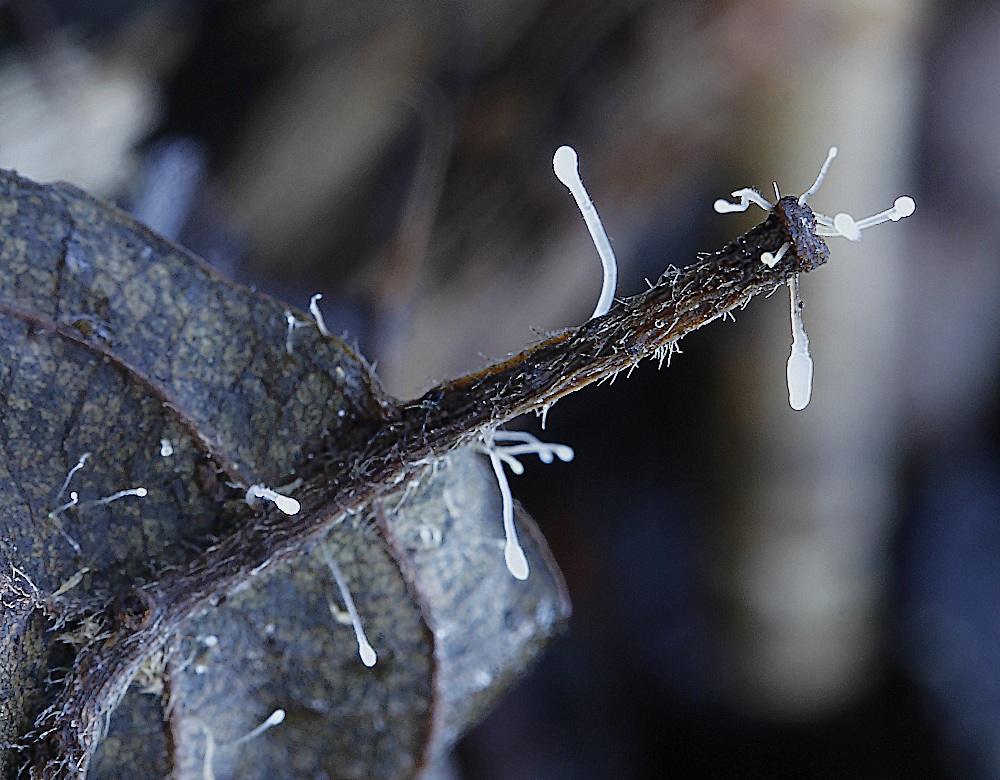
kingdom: Fungi
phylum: Basidiomycota
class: Agaricomycetes
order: Agaricales
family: Typhulaceae
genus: Typhula
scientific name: Typhula setipes
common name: liden trådkølle
